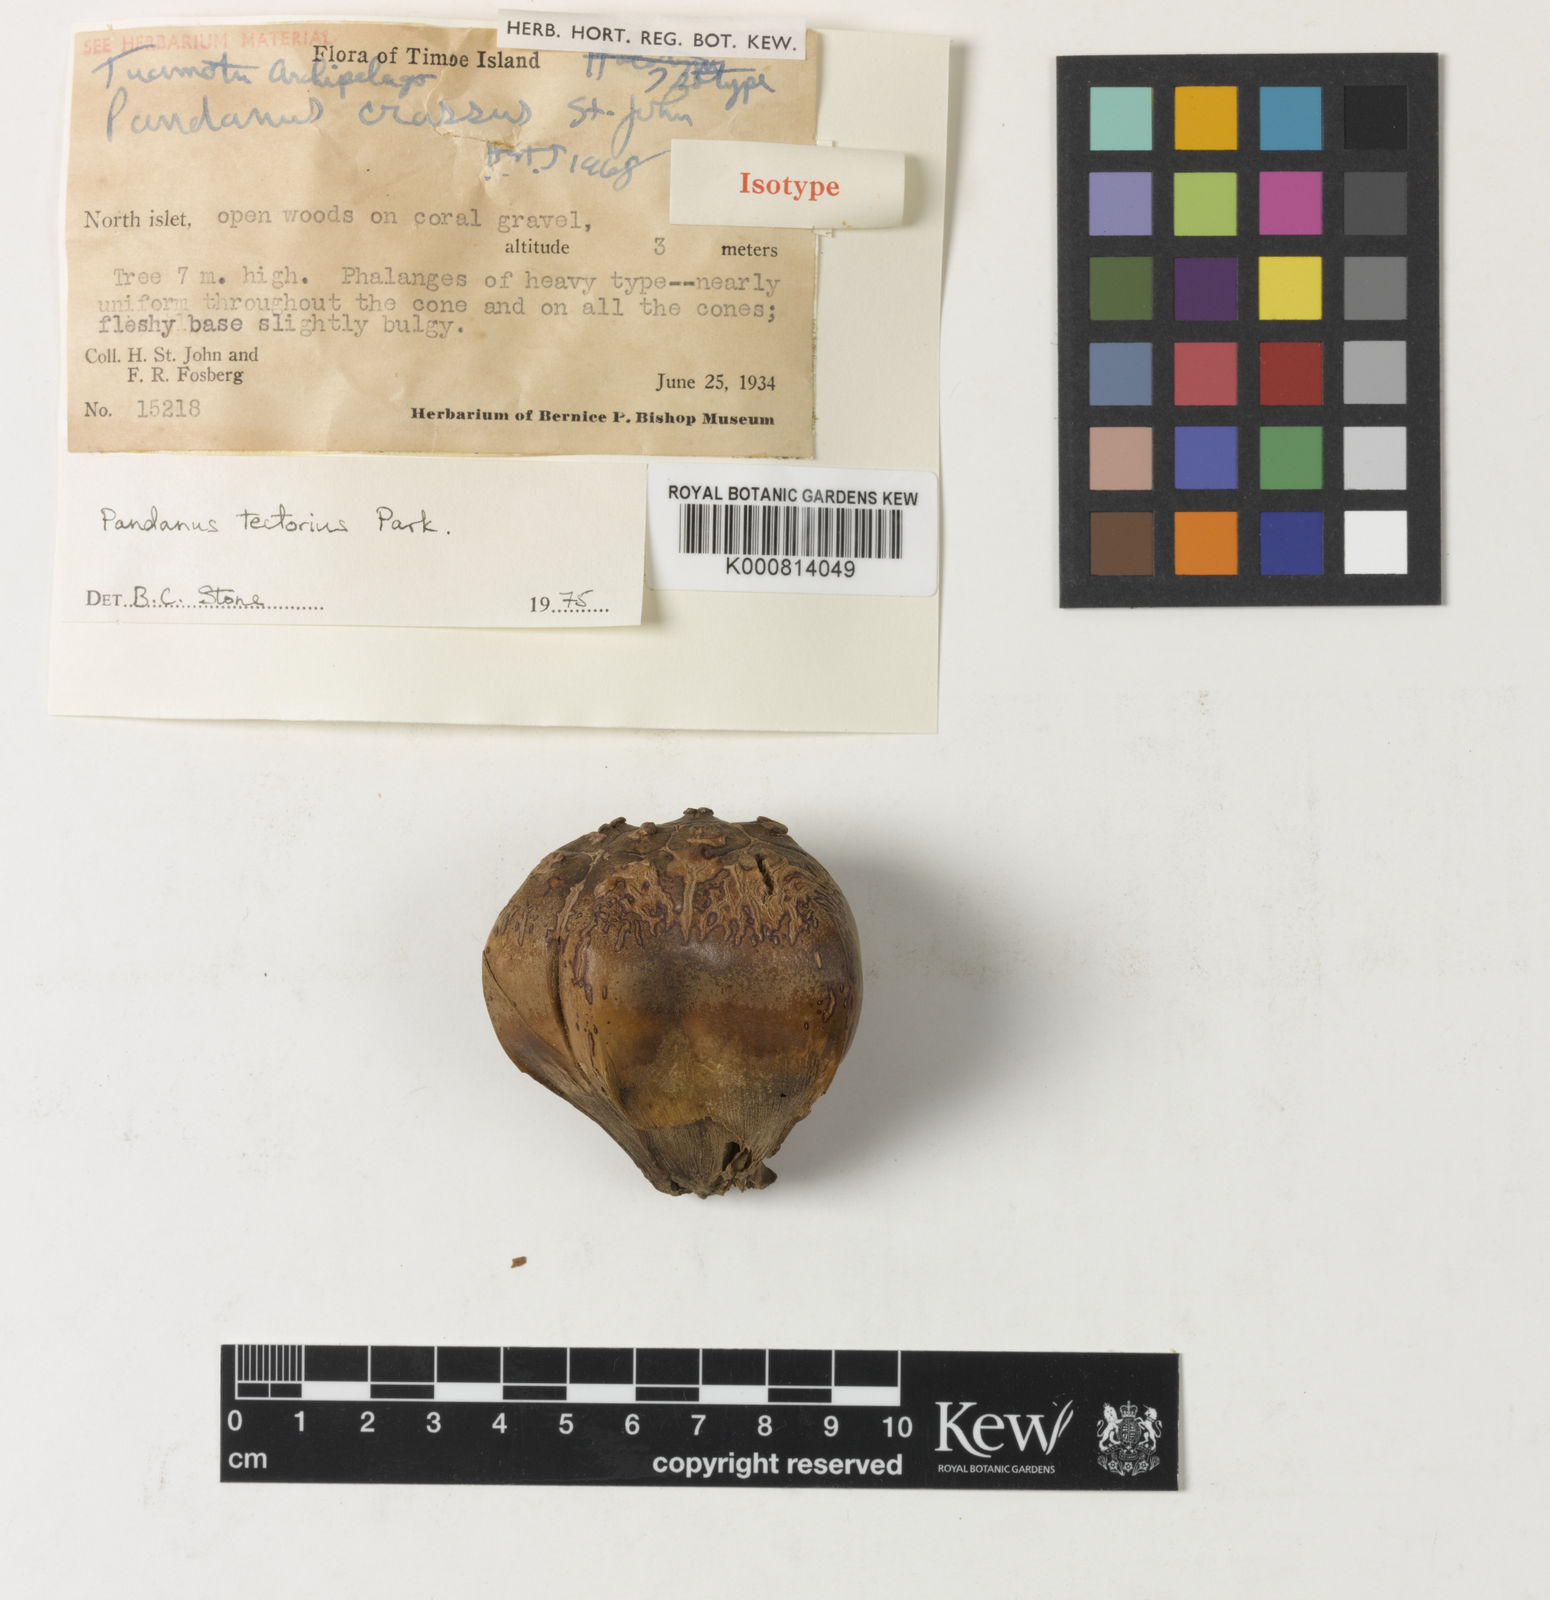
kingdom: Plantae
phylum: Tracheophyta
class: Liliopsida
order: Pandanales
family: Pandanaceae
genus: Pandanus
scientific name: Pandanus
